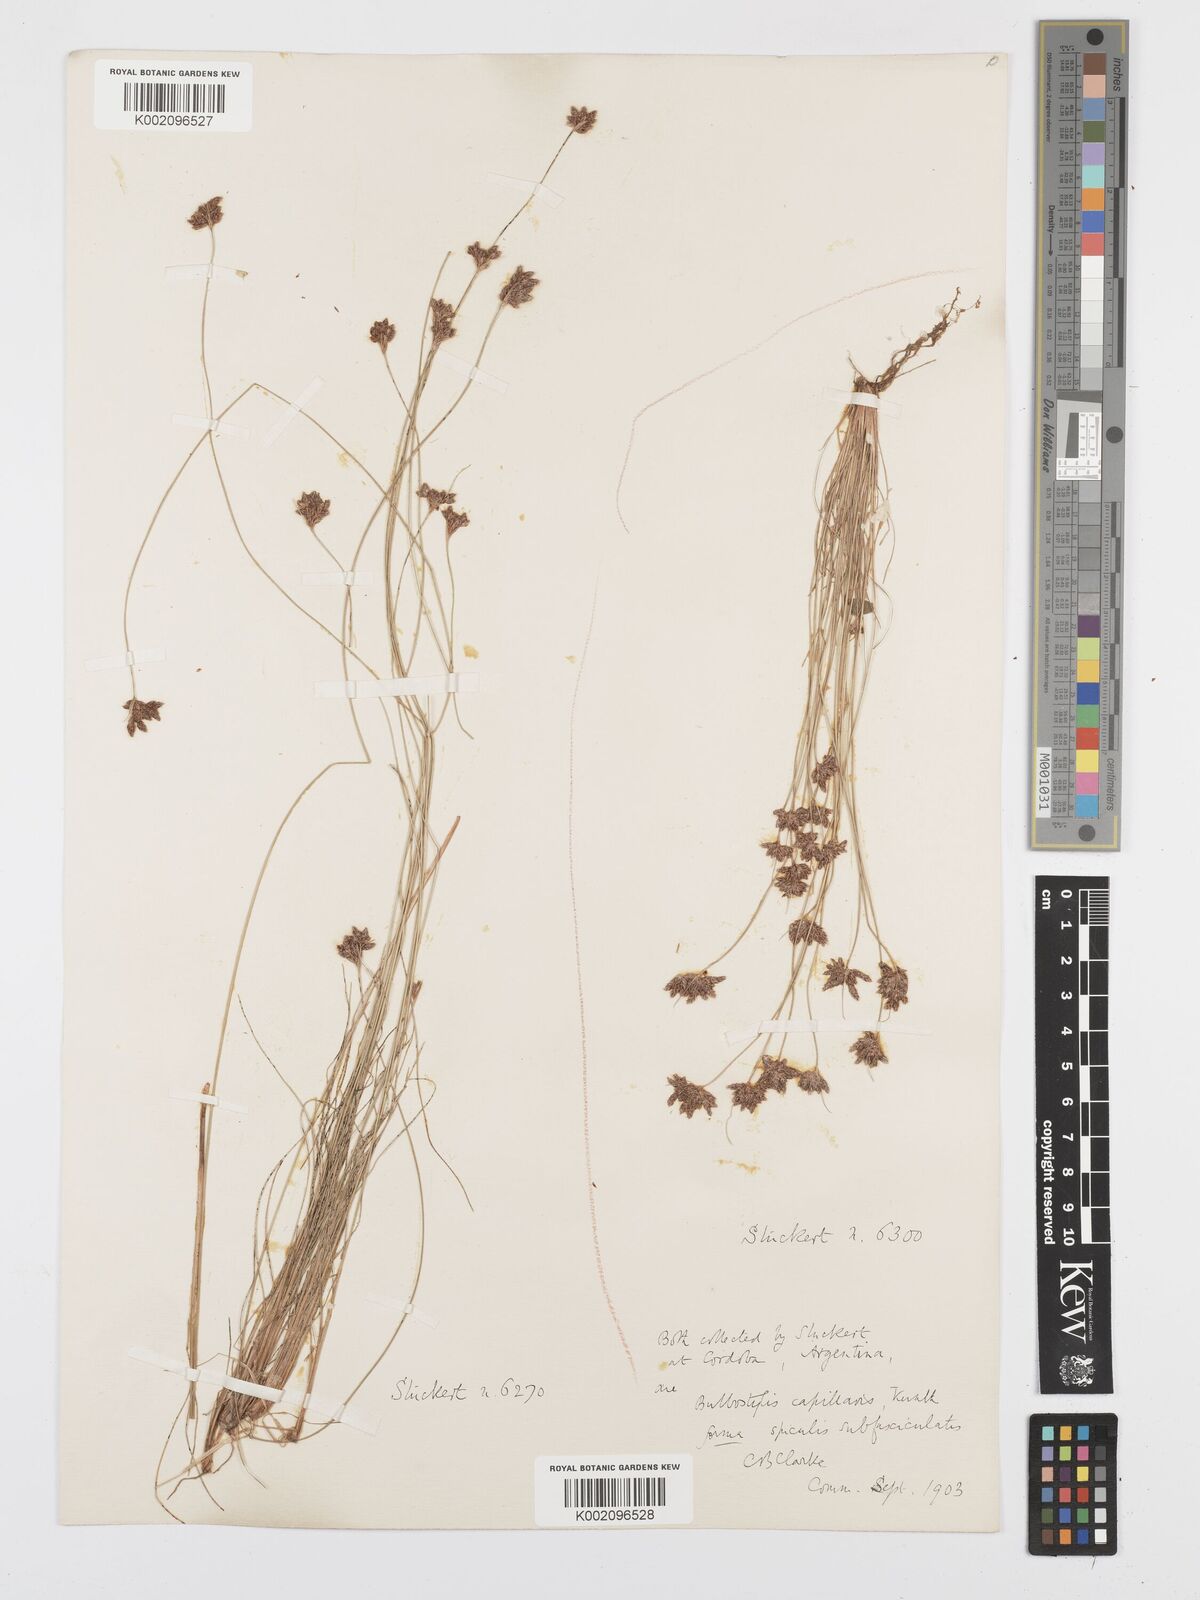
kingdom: Plantae
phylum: Tracheophyta
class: Liliopsida
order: Poales
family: Cyperaceae
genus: Bulbostylis
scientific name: Bulbostylis capillaris
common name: Densetuft hairsedge
